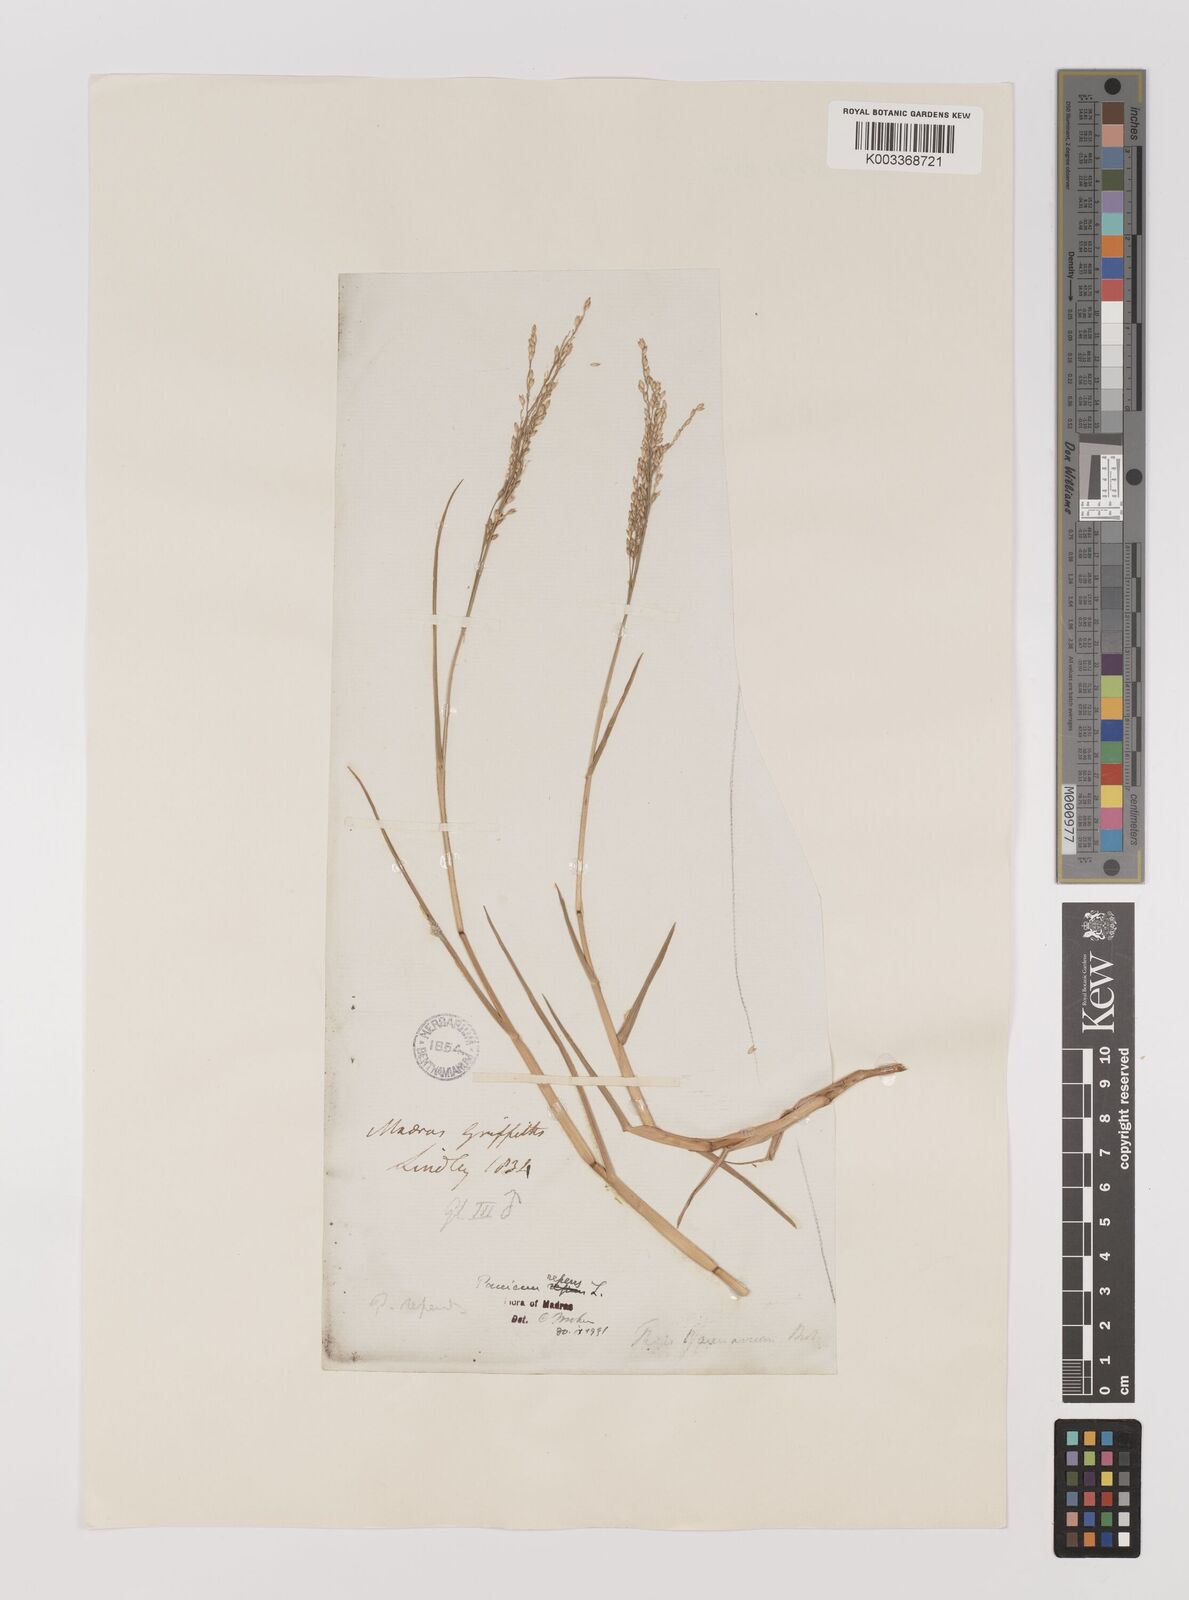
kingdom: Plantae
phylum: Tracheophyta
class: Liliopsida
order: Poales
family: Poaceae
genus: Panicum
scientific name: Panicum repens
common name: Torpedo grass
